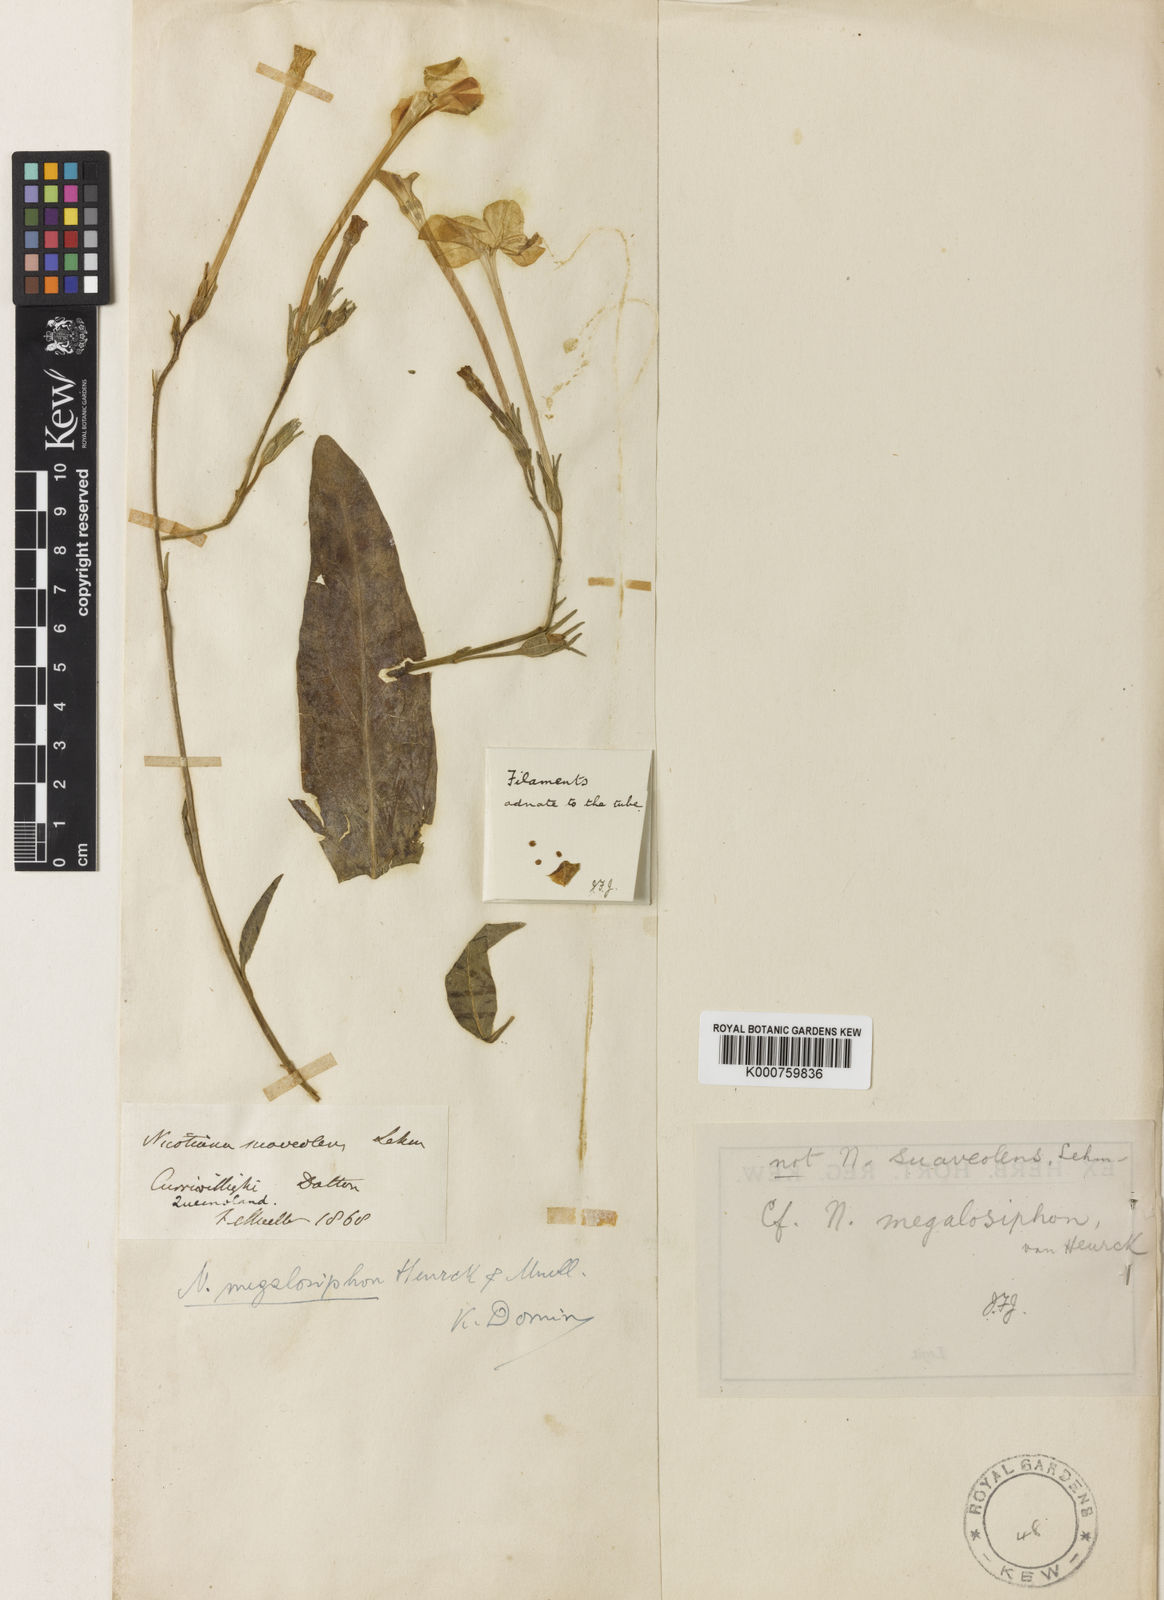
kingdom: Plantae
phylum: Tracheophyta
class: Magnoliopsida
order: Solanales
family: Solanaceae
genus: Nicotiana
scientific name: Nicotiana megalosiphon
